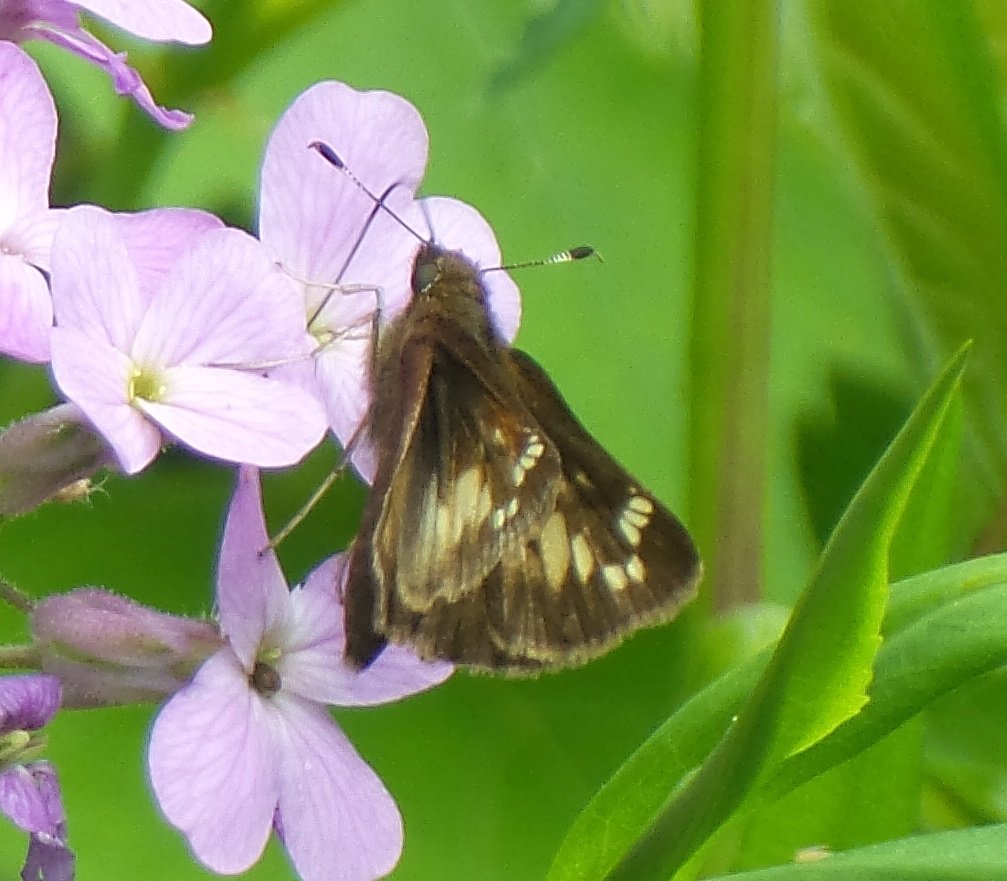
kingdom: Animalia
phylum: Arthropoda
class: Insecta
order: Lepidoptera
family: Hesperiidae
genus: Lon
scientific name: Lon hobomok
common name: Hobomok Skipper
